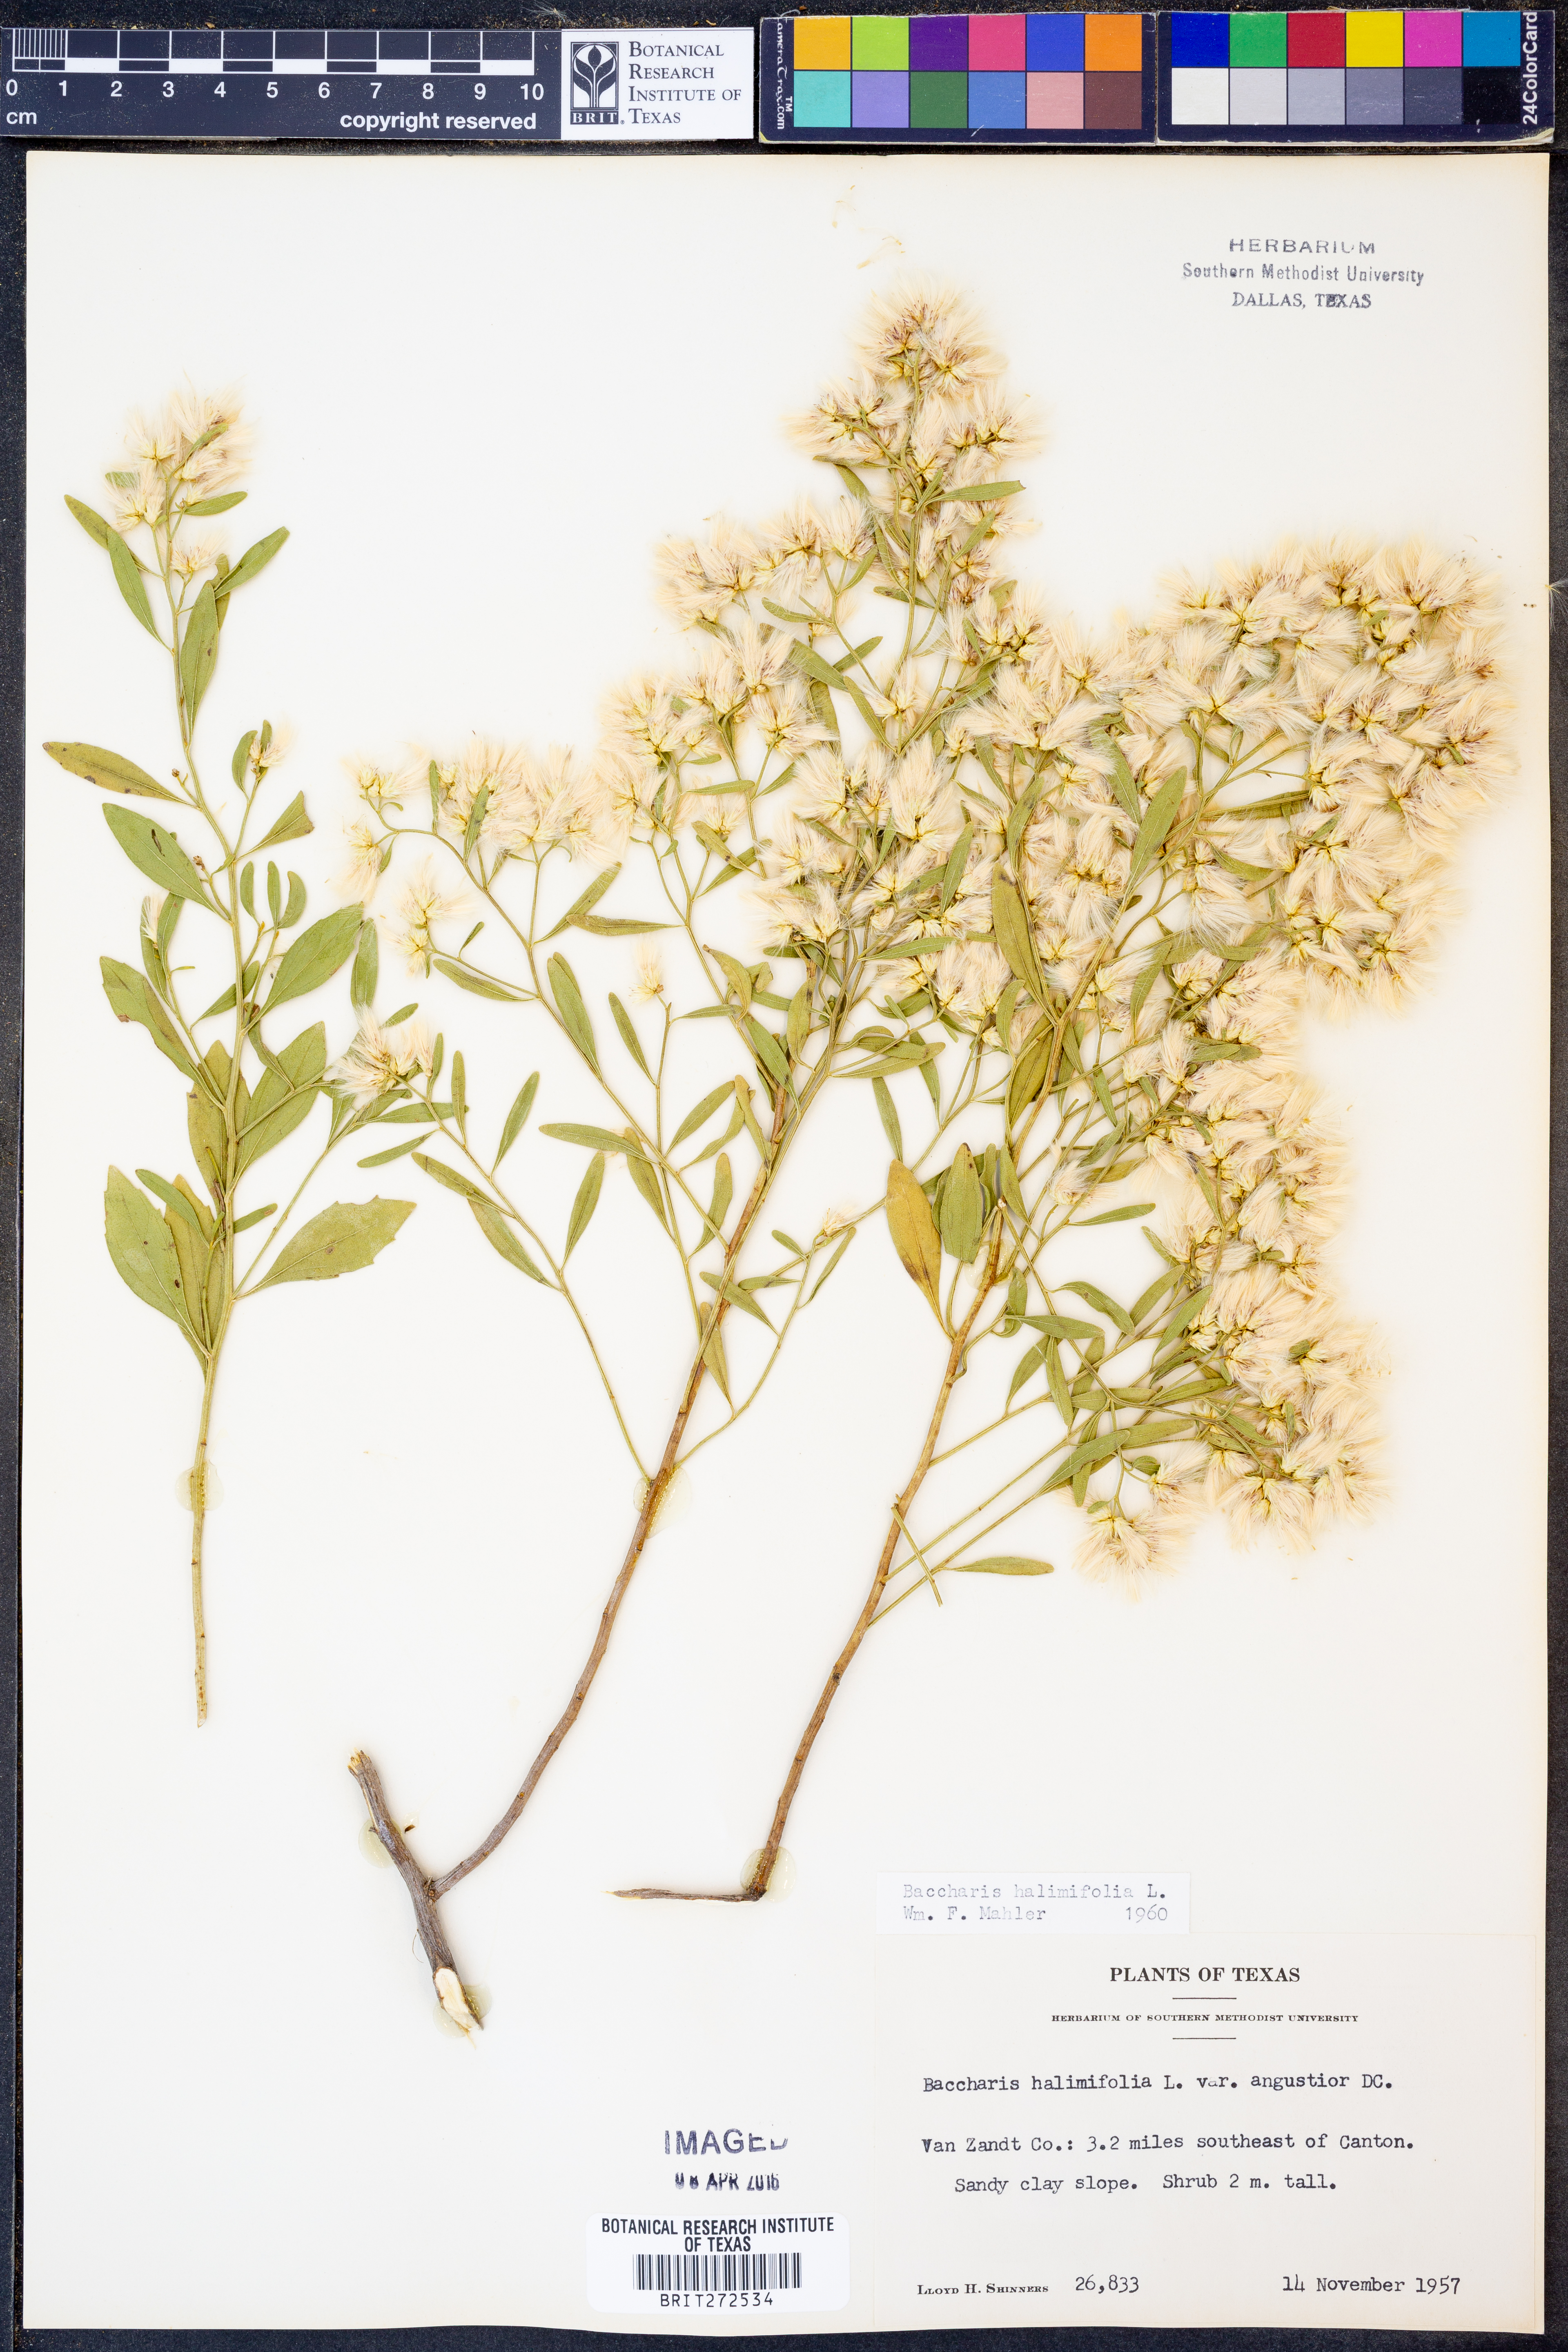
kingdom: Plantae
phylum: Tracheophyta
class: Magnoliopsida
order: Asterales
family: Asteraceae
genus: Nidorella
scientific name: Nidorella ivifolia
